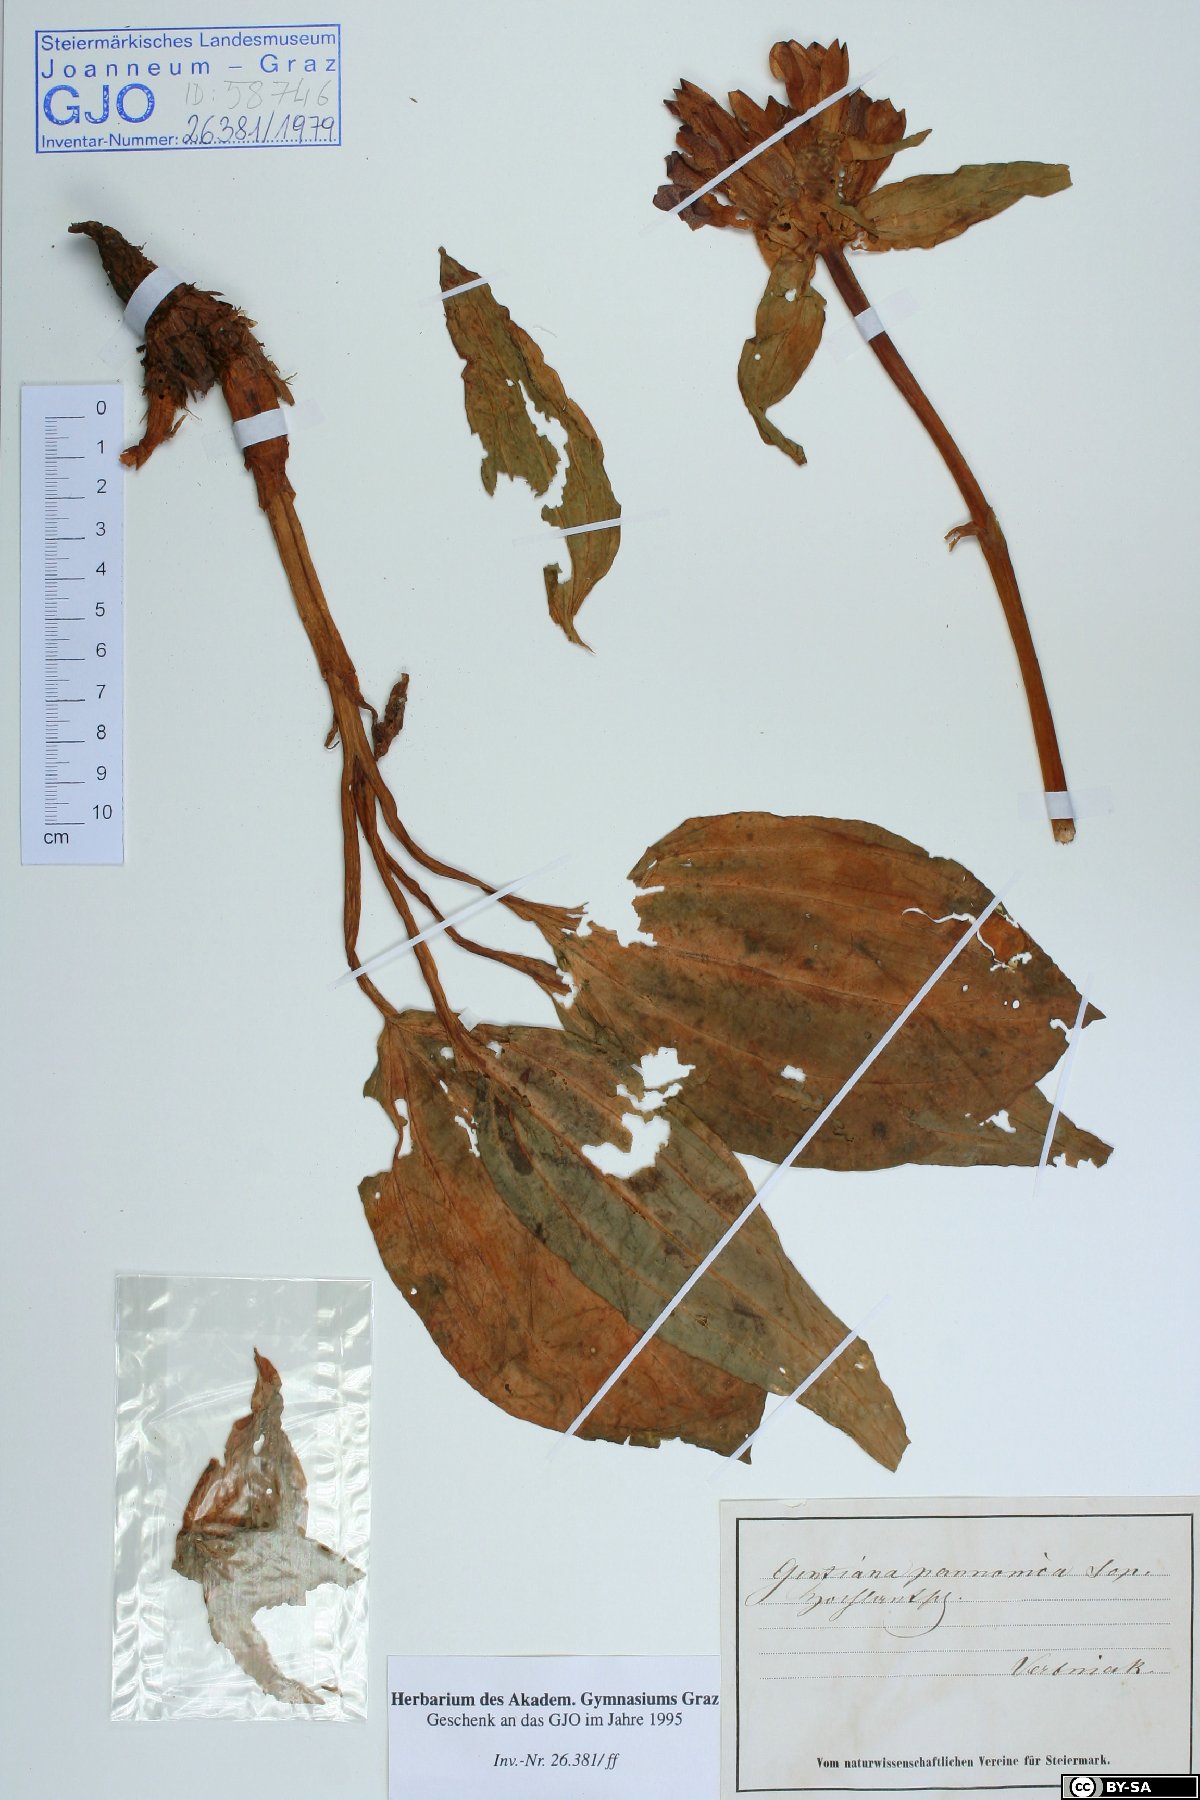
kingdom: Plantae
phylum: Tracheophyta
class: Magnoliopsida
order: Gentianales
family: Gentianaceae
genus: Gentiana
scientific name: Gentiana pannonica
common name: Hungarian gentian
